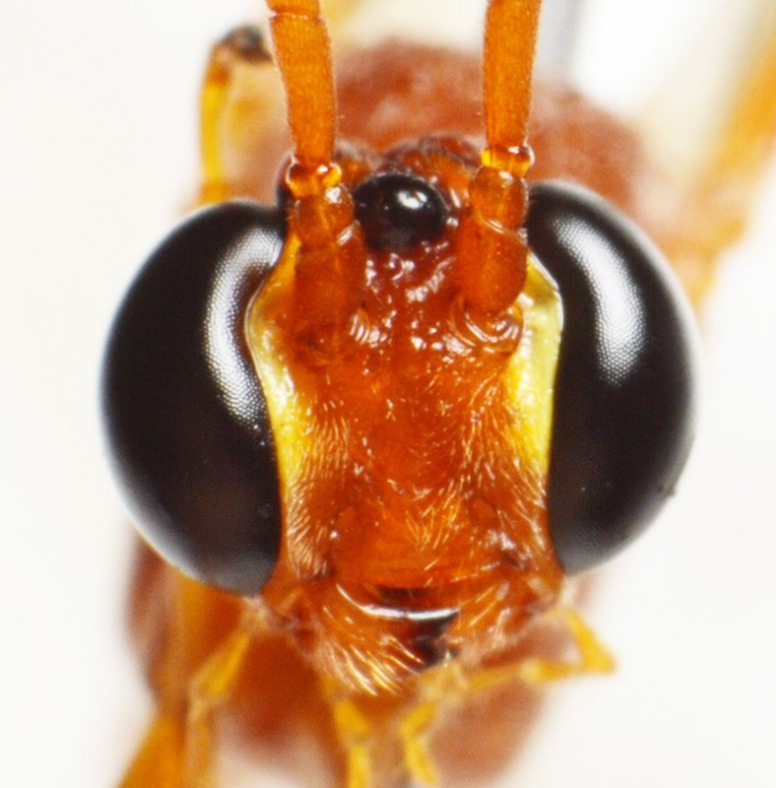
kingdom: Animalia
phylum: Arthropoda
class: Insecta
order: Hymenoptera
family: Ichneumonidae
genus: Ophion
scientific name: Ophion mocsaryi
